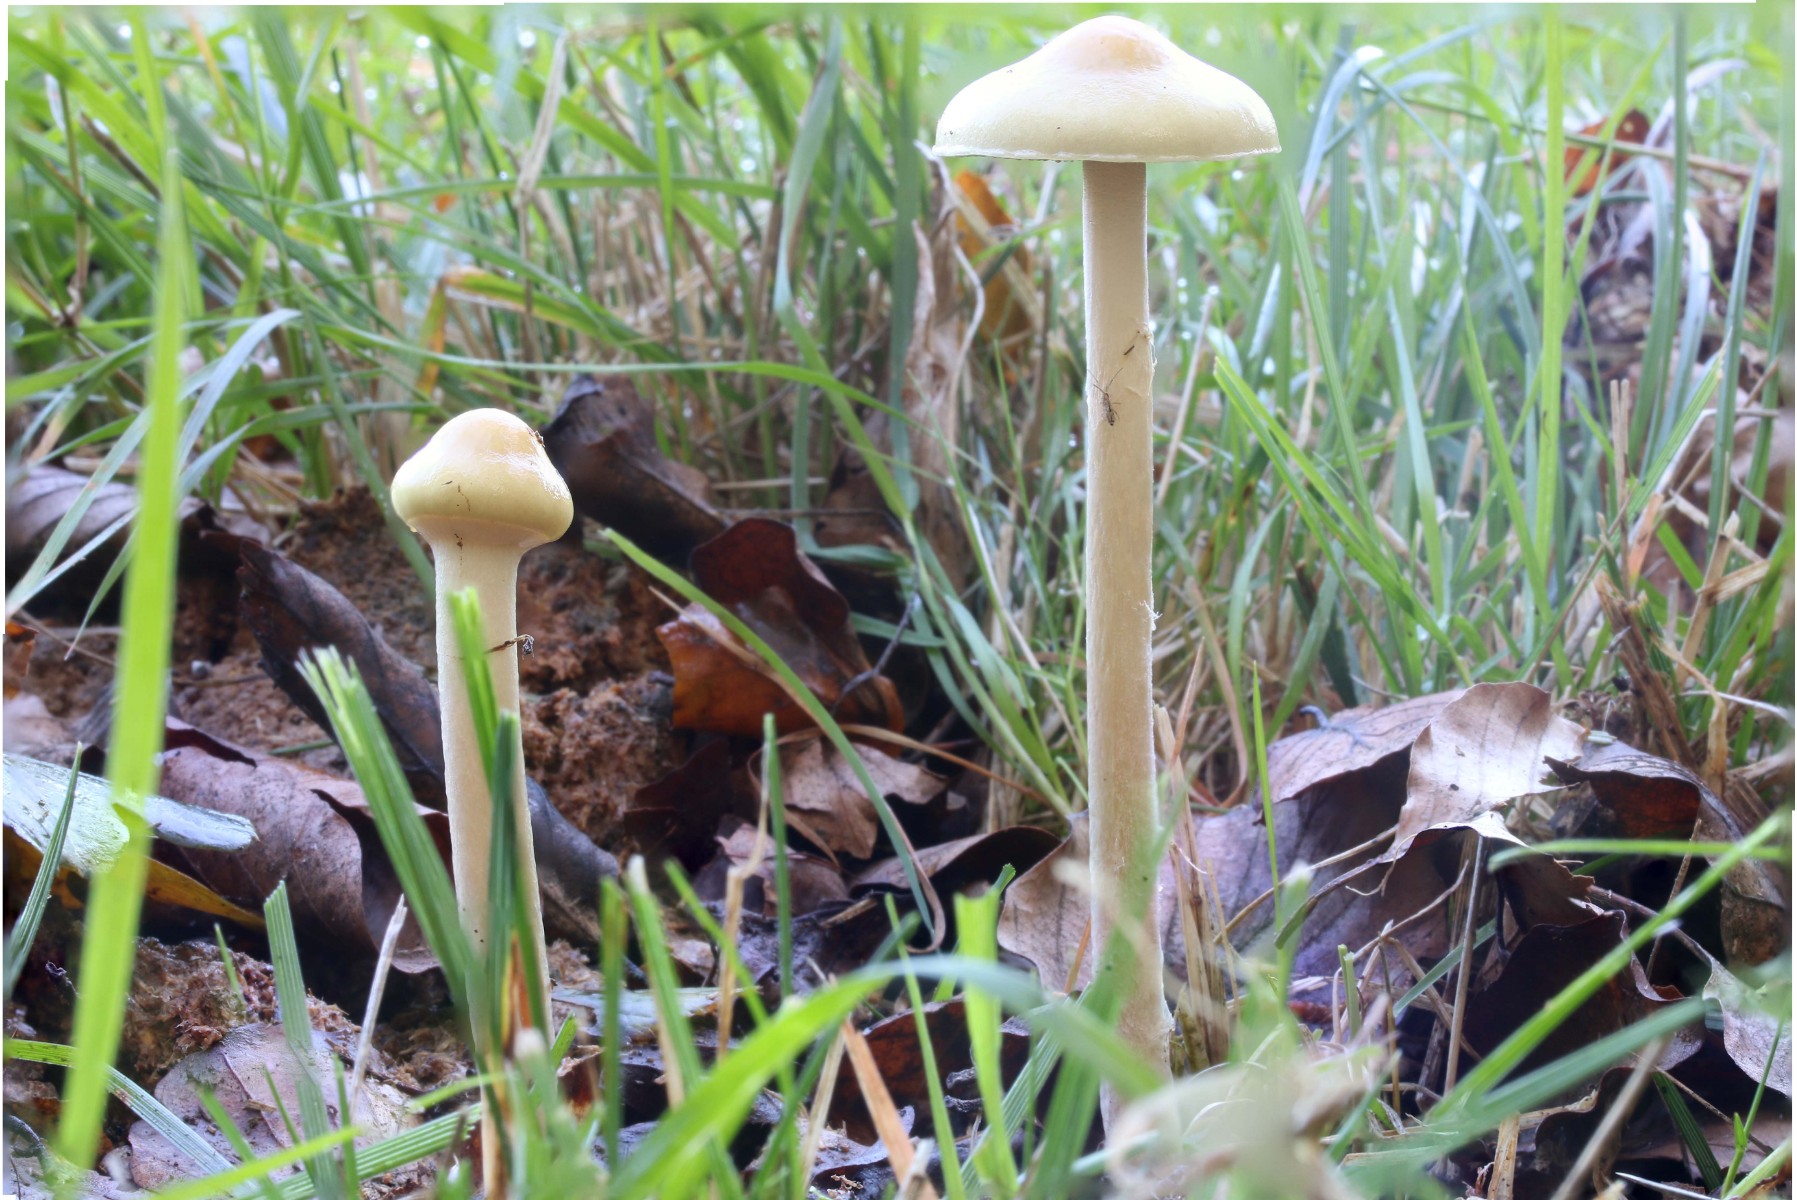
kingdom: Fungi
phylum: Basidiomycota
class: Agaricomycetes
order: Agaricales
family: Strophariaceae
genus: Protostropharia
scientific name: Protostropharia semiglobata
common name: halvkugleformet bredblad
